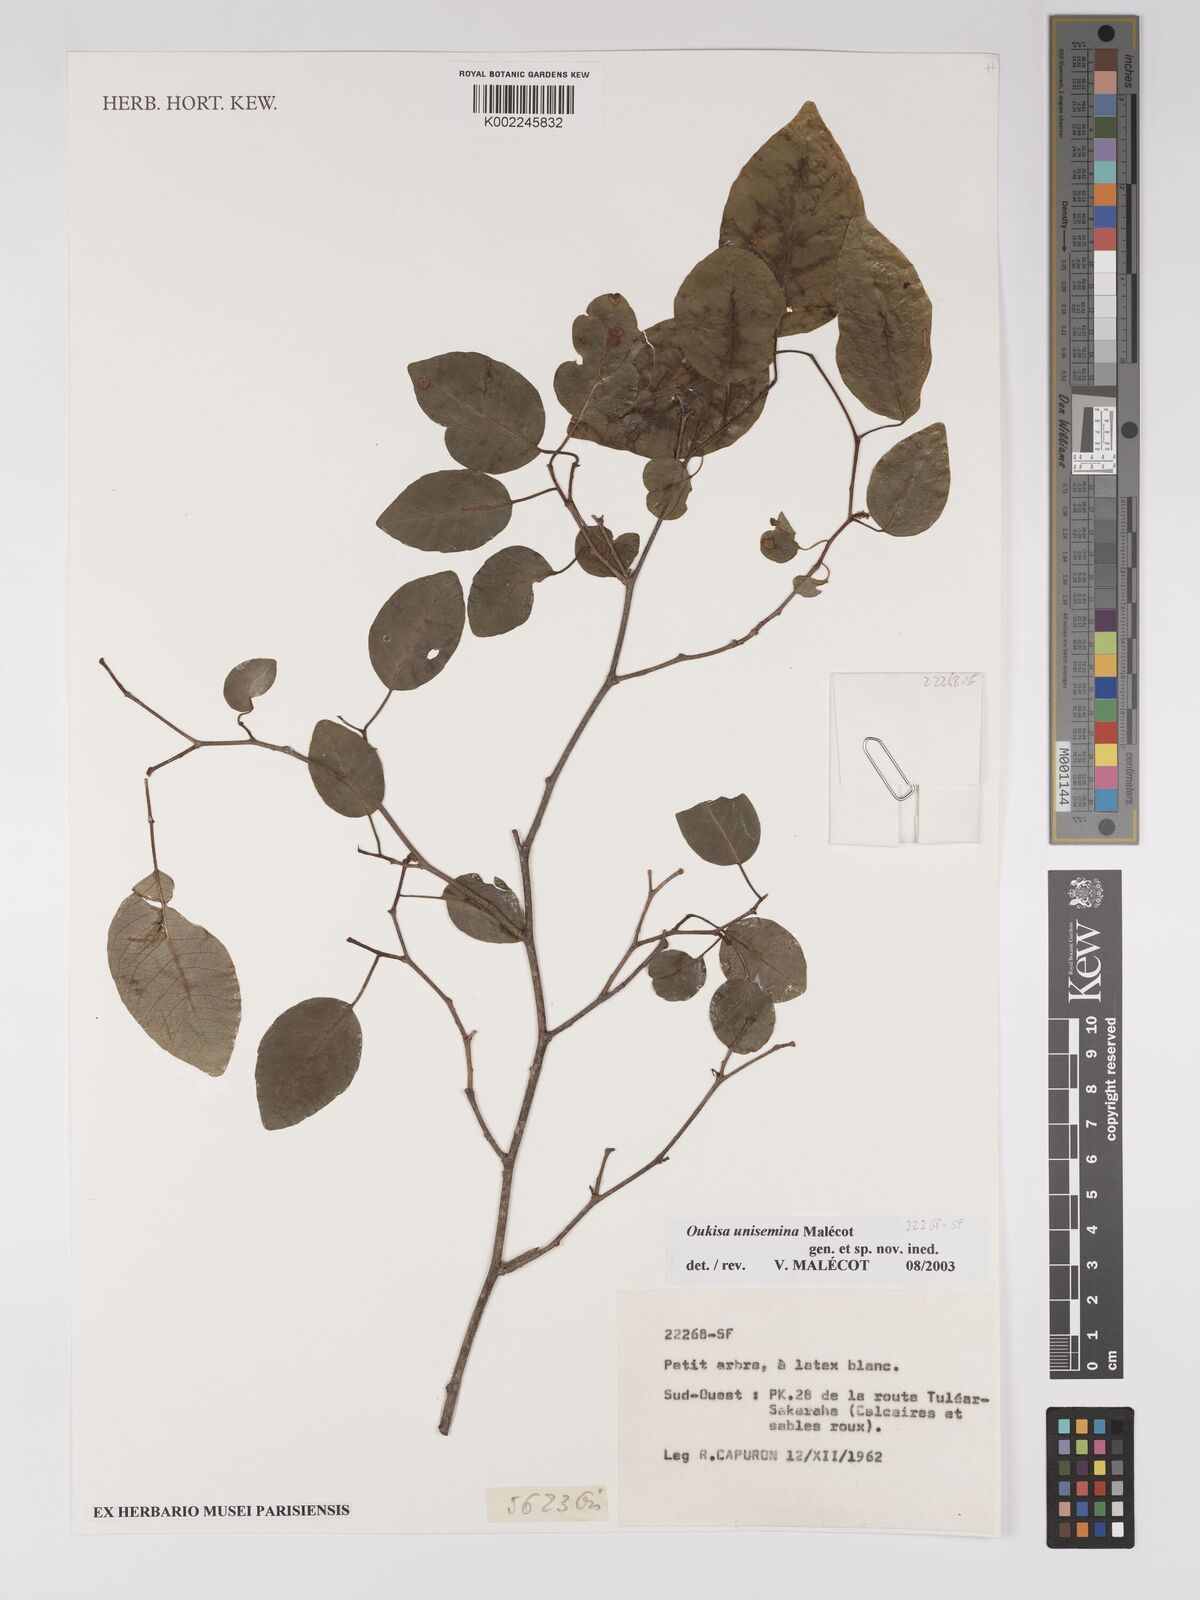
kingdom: Plantae
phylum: Tracheophyta
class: Magnoliopsida
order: Malpighiales
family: Euphorbiaceae
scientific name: Euphorbiaceae
